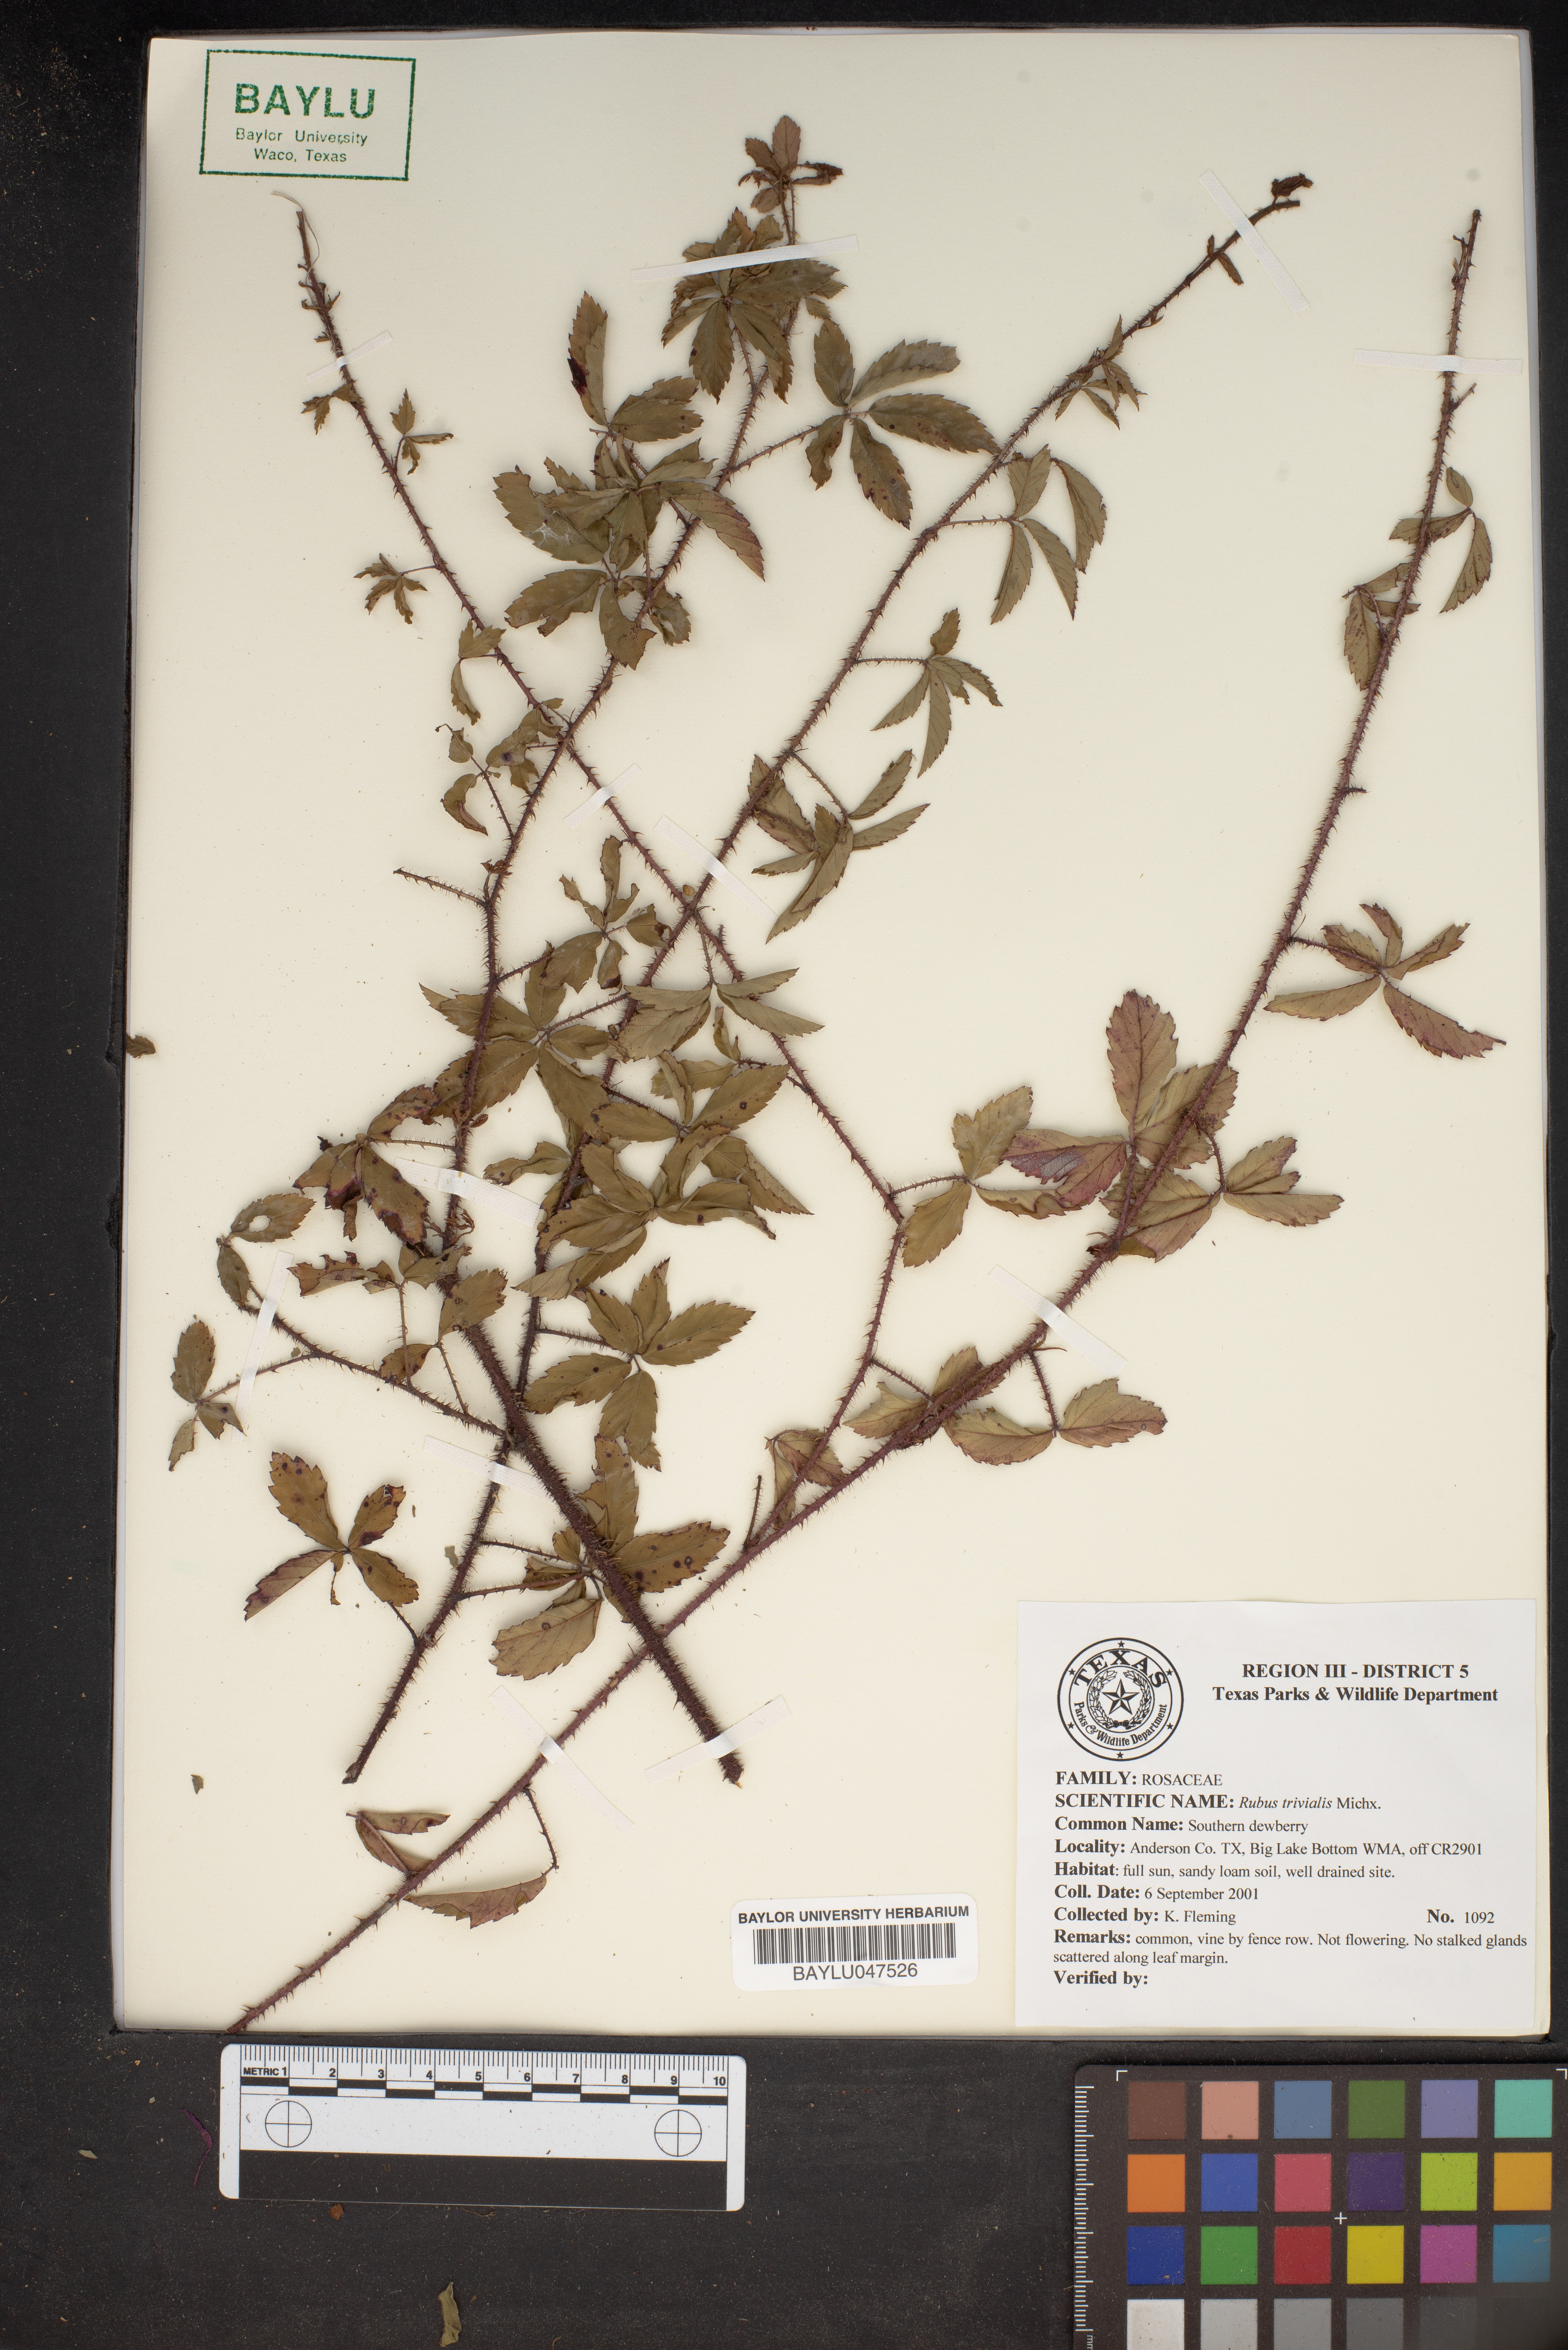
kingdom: Plantae
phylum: Tracheophyta
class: Magnoliopsida
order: Rosales
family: Rosaceae
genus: Rubus
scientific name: Rubus trivialis
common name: Southern dewberry
